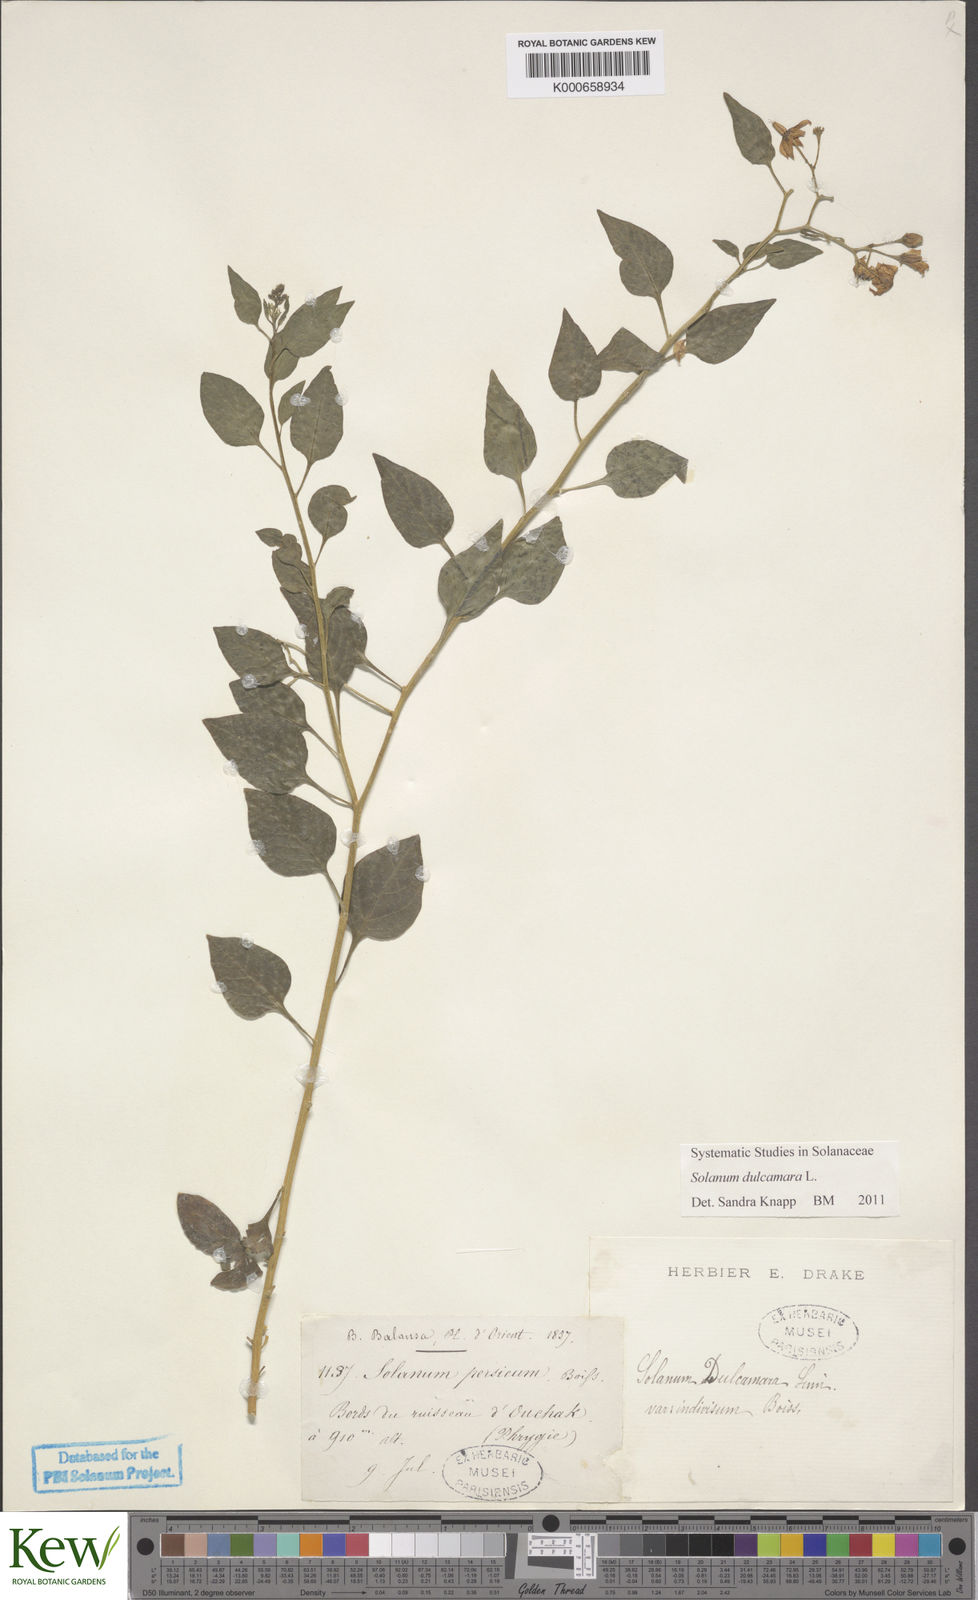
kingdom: Plantae
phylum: Tracheophyta
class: Magnoliopsida
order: Solanales
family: Solanaceae
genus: Solanum
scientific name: Solanum dulcamara
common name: Climbing nightshade
